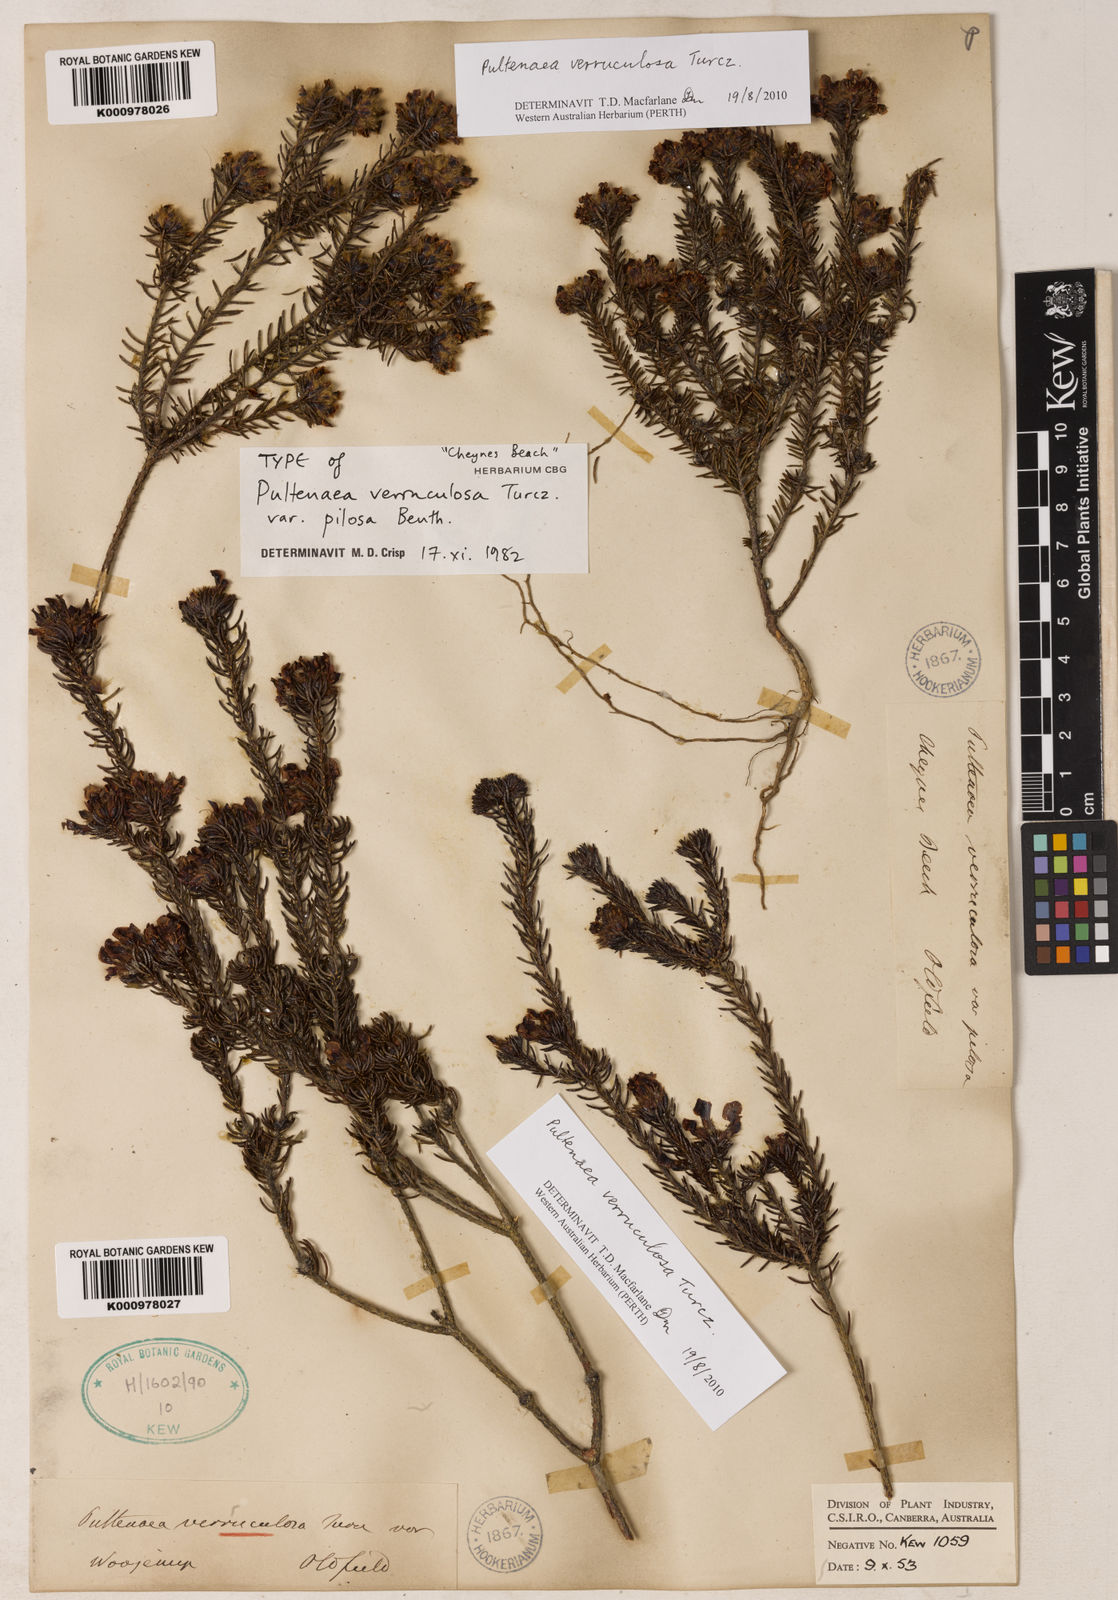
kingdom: Plantae
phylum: Tracheophyta
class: Magnoliopsida
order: Fabales
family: Fabaceae
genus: Pultenaea
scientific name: Pultenaea verruculosa
